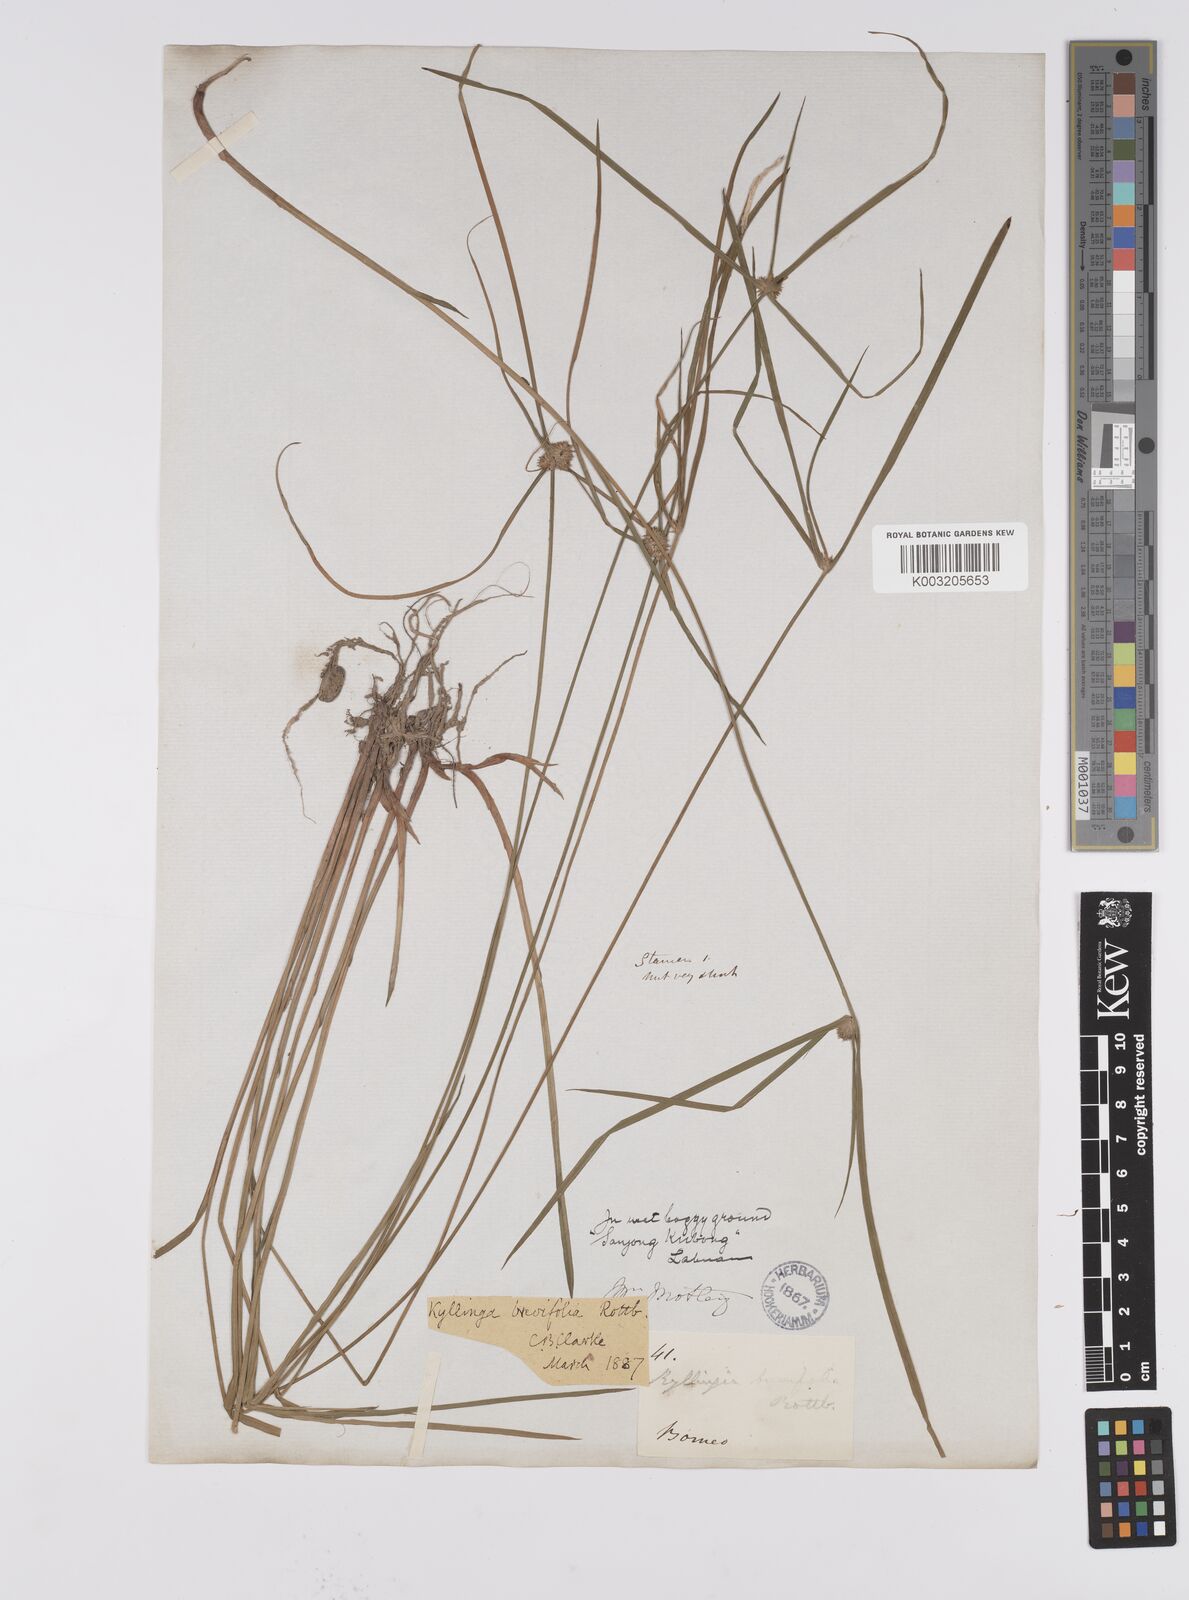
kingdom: Plantae
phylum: Tracheophyta
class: Liliopsida
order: Poales
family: Cyperaceae
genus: Cyperus
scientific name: Cyperus brevifolius
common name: Globe kyllinga
